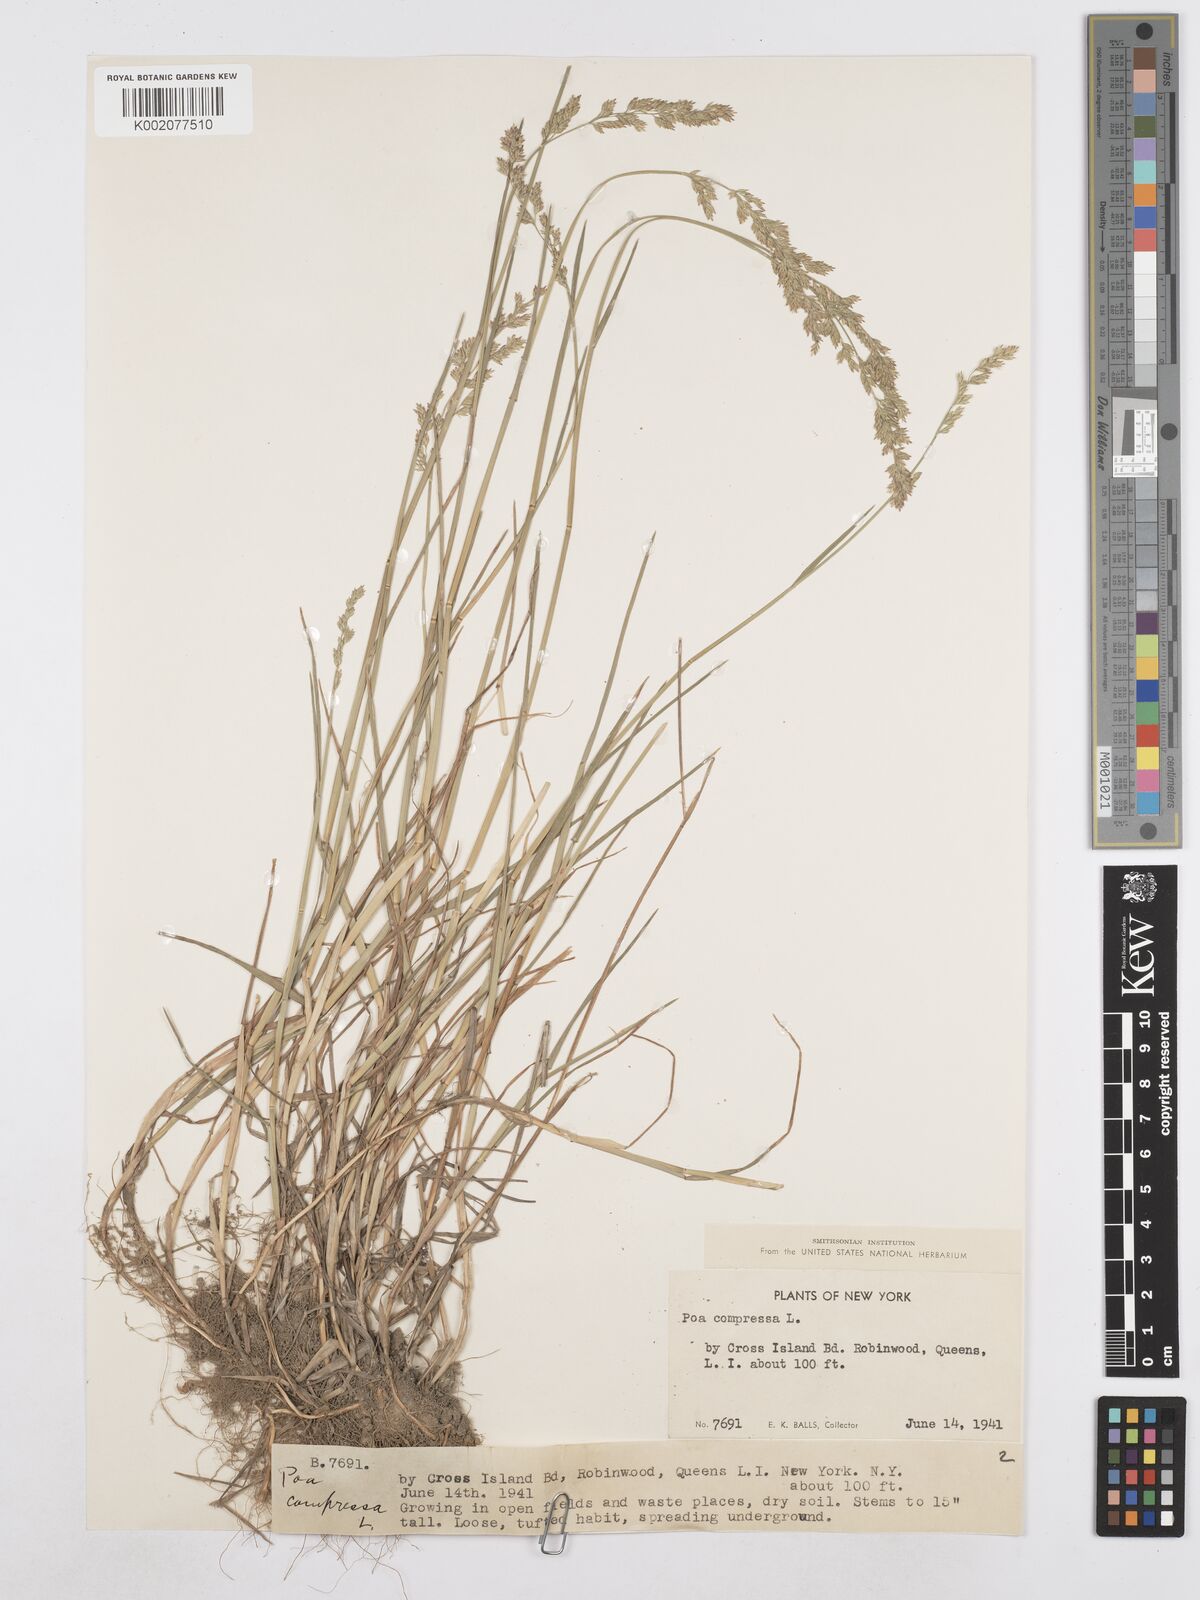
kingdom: Plantae
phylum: Tracheophyta
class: Liliopsida
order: Poales
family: Poaceae
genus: Poa
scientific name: Poa compressa
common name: Canada bluegrass
